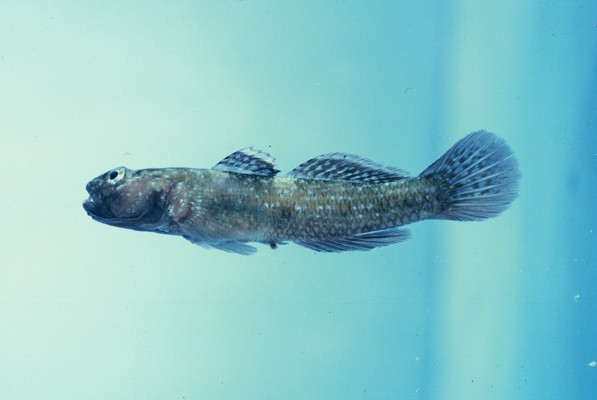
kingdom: Animalia
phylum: Chordata
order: Perciformes
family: Gobiidae
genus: Bathygobius
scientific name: Bathygobius cocosensis
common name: Cocos frillgoby
